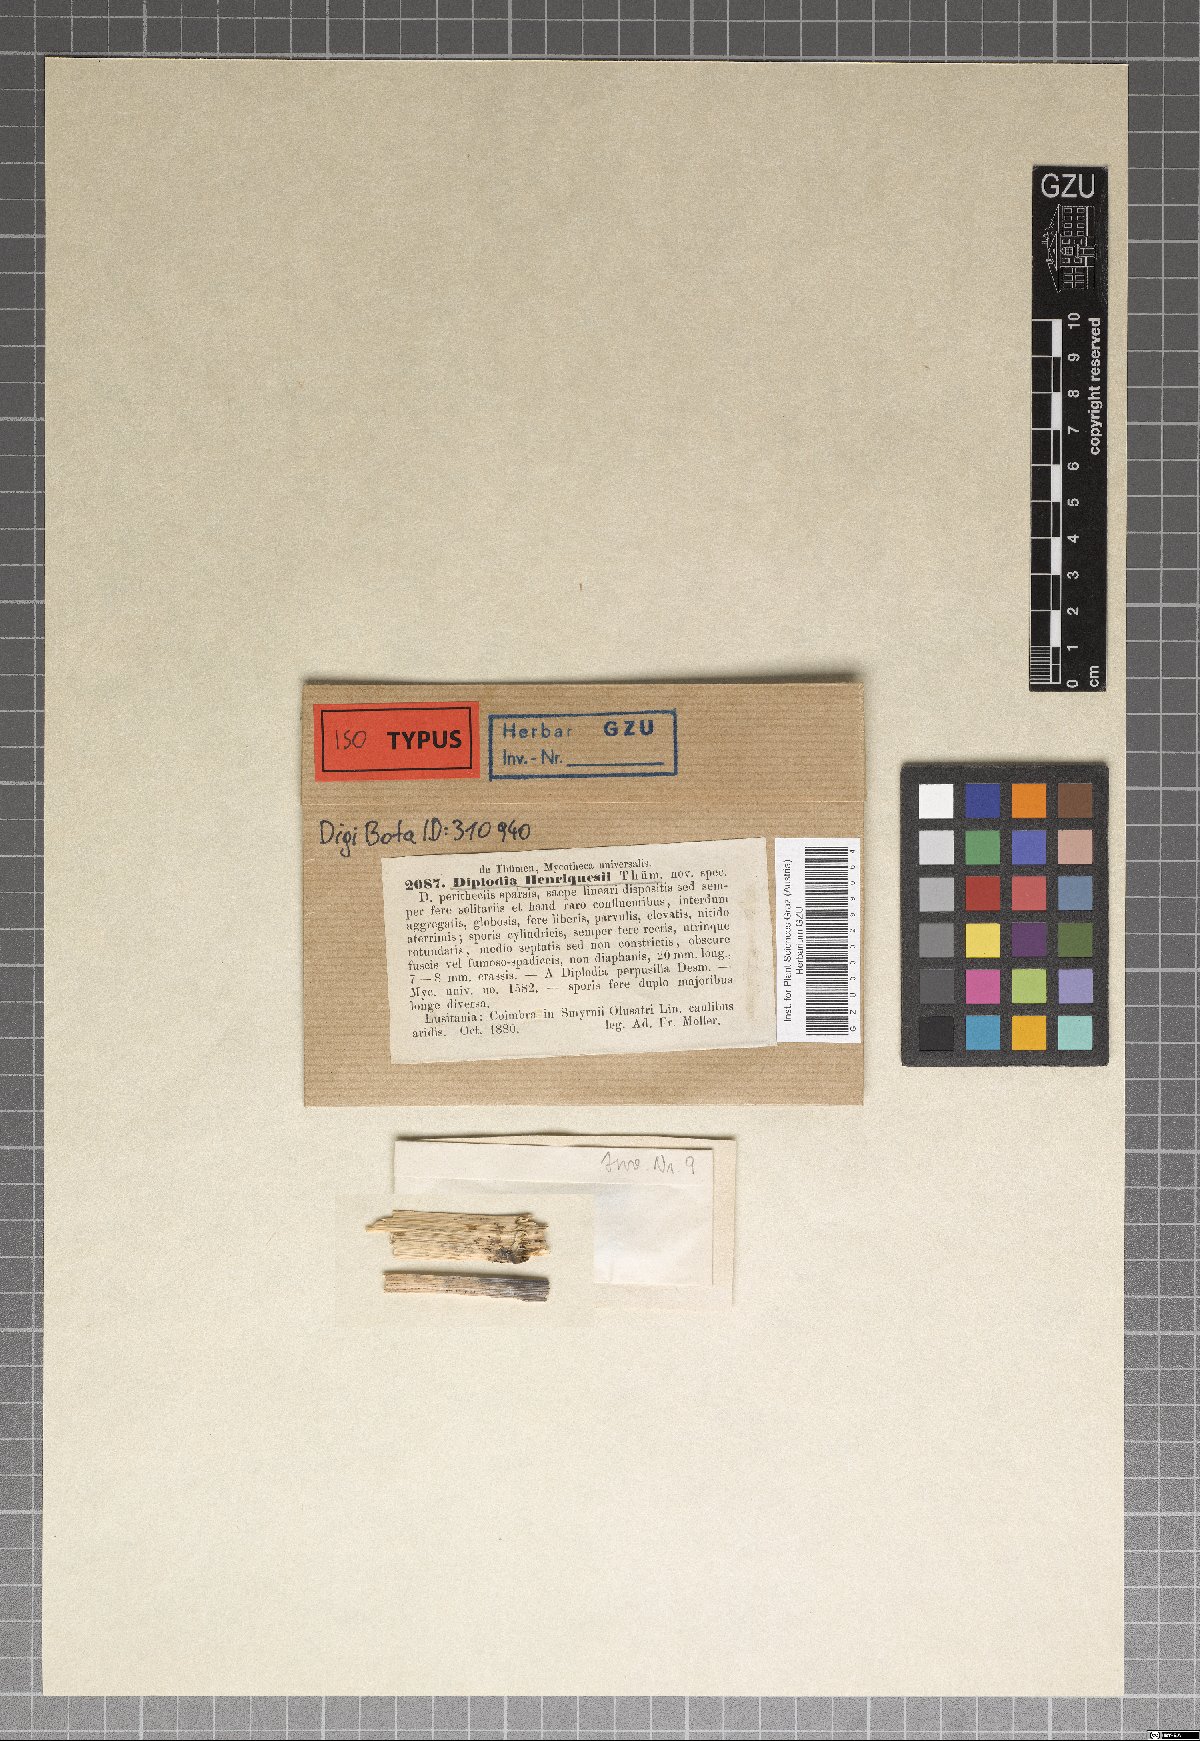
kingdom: Fungi
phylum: Ascomycota
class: Dothideomycetes
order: Botryosphaeriales
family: Botryosphaeriaceae
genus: Diplodia
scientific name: Diplodia henriquesii
